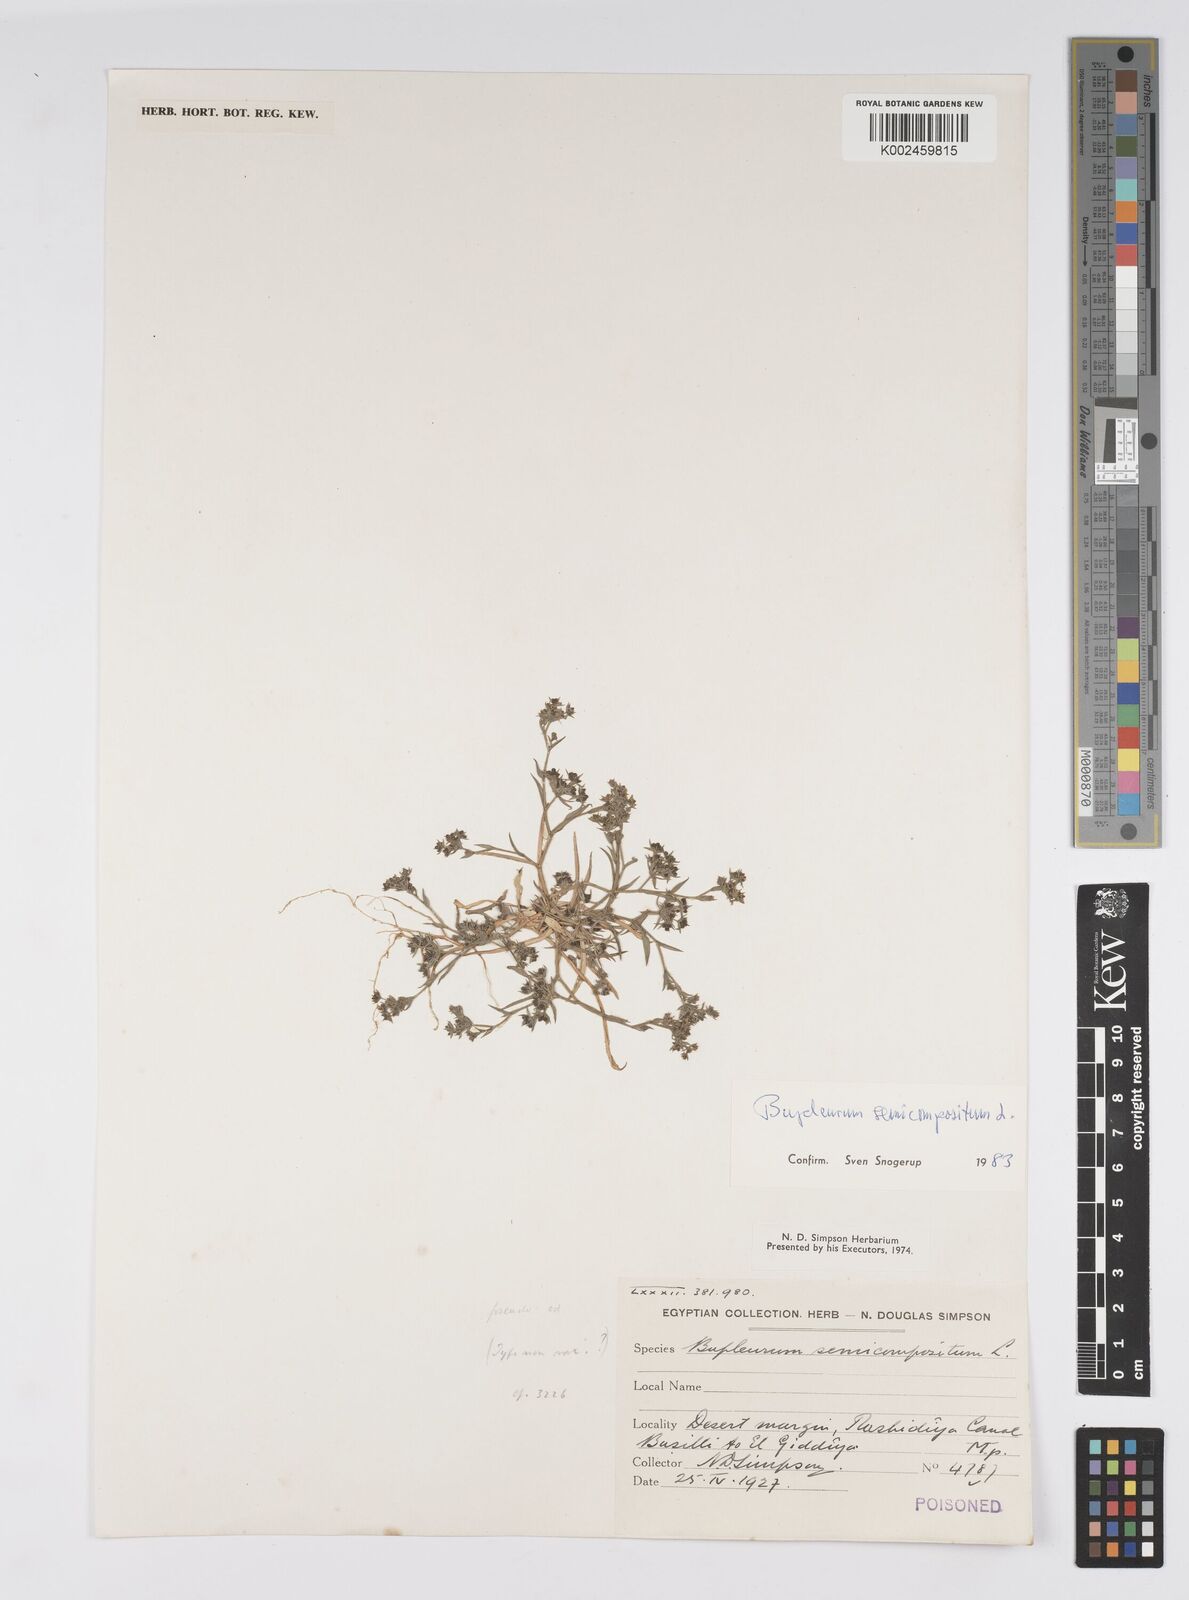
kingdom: Plantae
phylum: Tracheophyta
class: Magnoliopsida
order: Apiales
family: Apiaceae
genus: Bupleurum
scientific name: Bupleurum semicompositum
